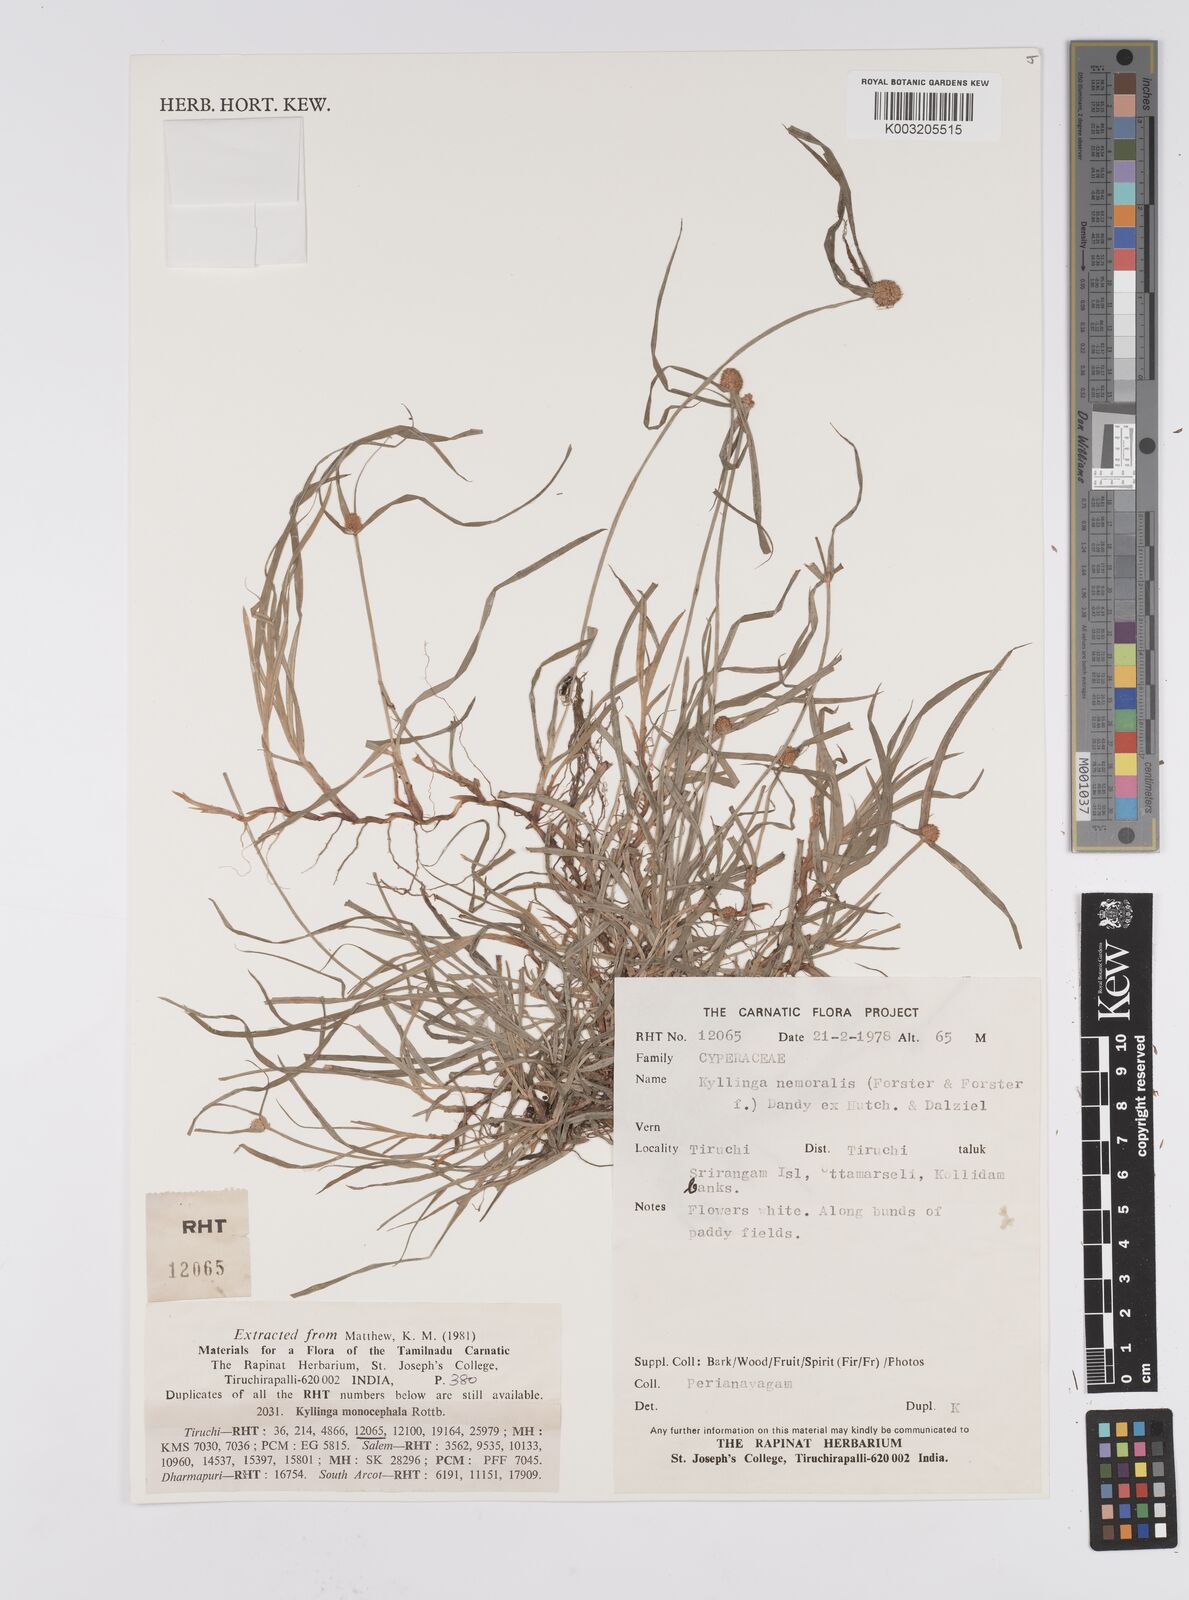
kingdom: Plantae
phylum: Tracheophyta
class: Liliopsida
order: Poales
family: Cyperaceae
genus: Cyperus
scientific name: Cyperus nemoralis
